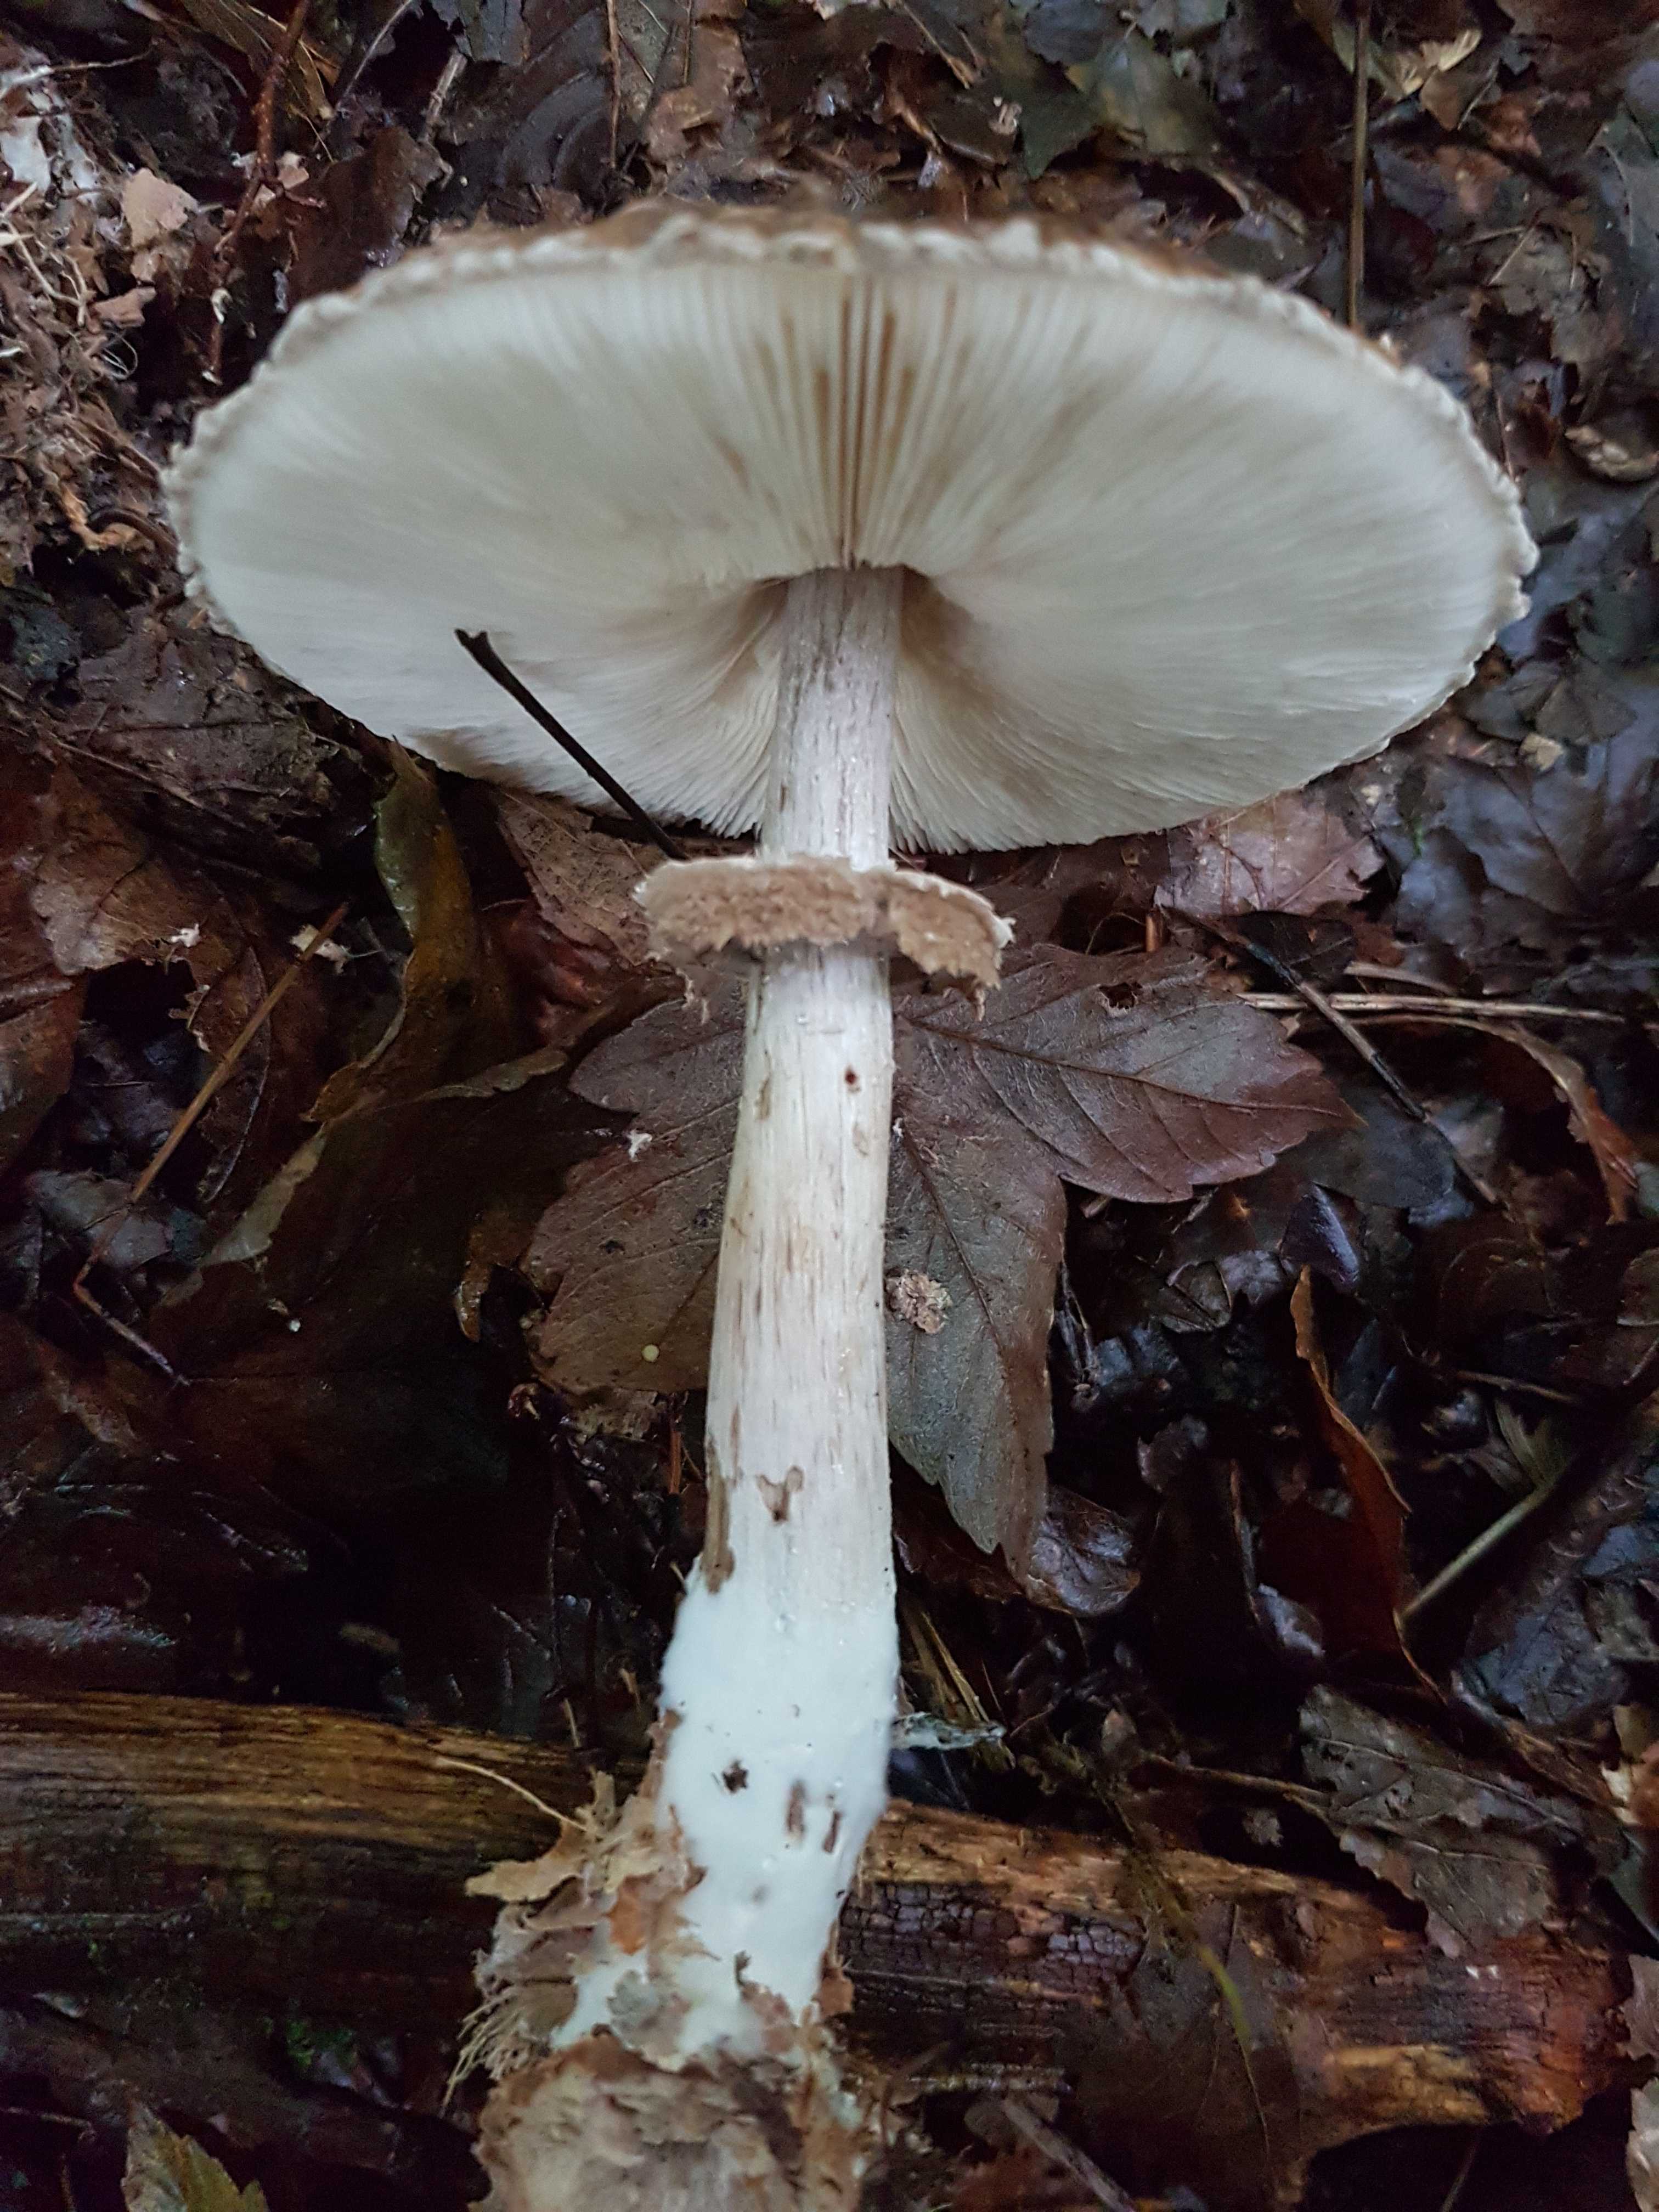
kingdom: Fungi
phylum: Basidiomycota
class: Agaricomycetes
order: Agaricales
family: Agaricaceae
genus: Chlorophyllum
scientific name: Chlorophyllum olivieri
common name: almindelig rabarberhat
